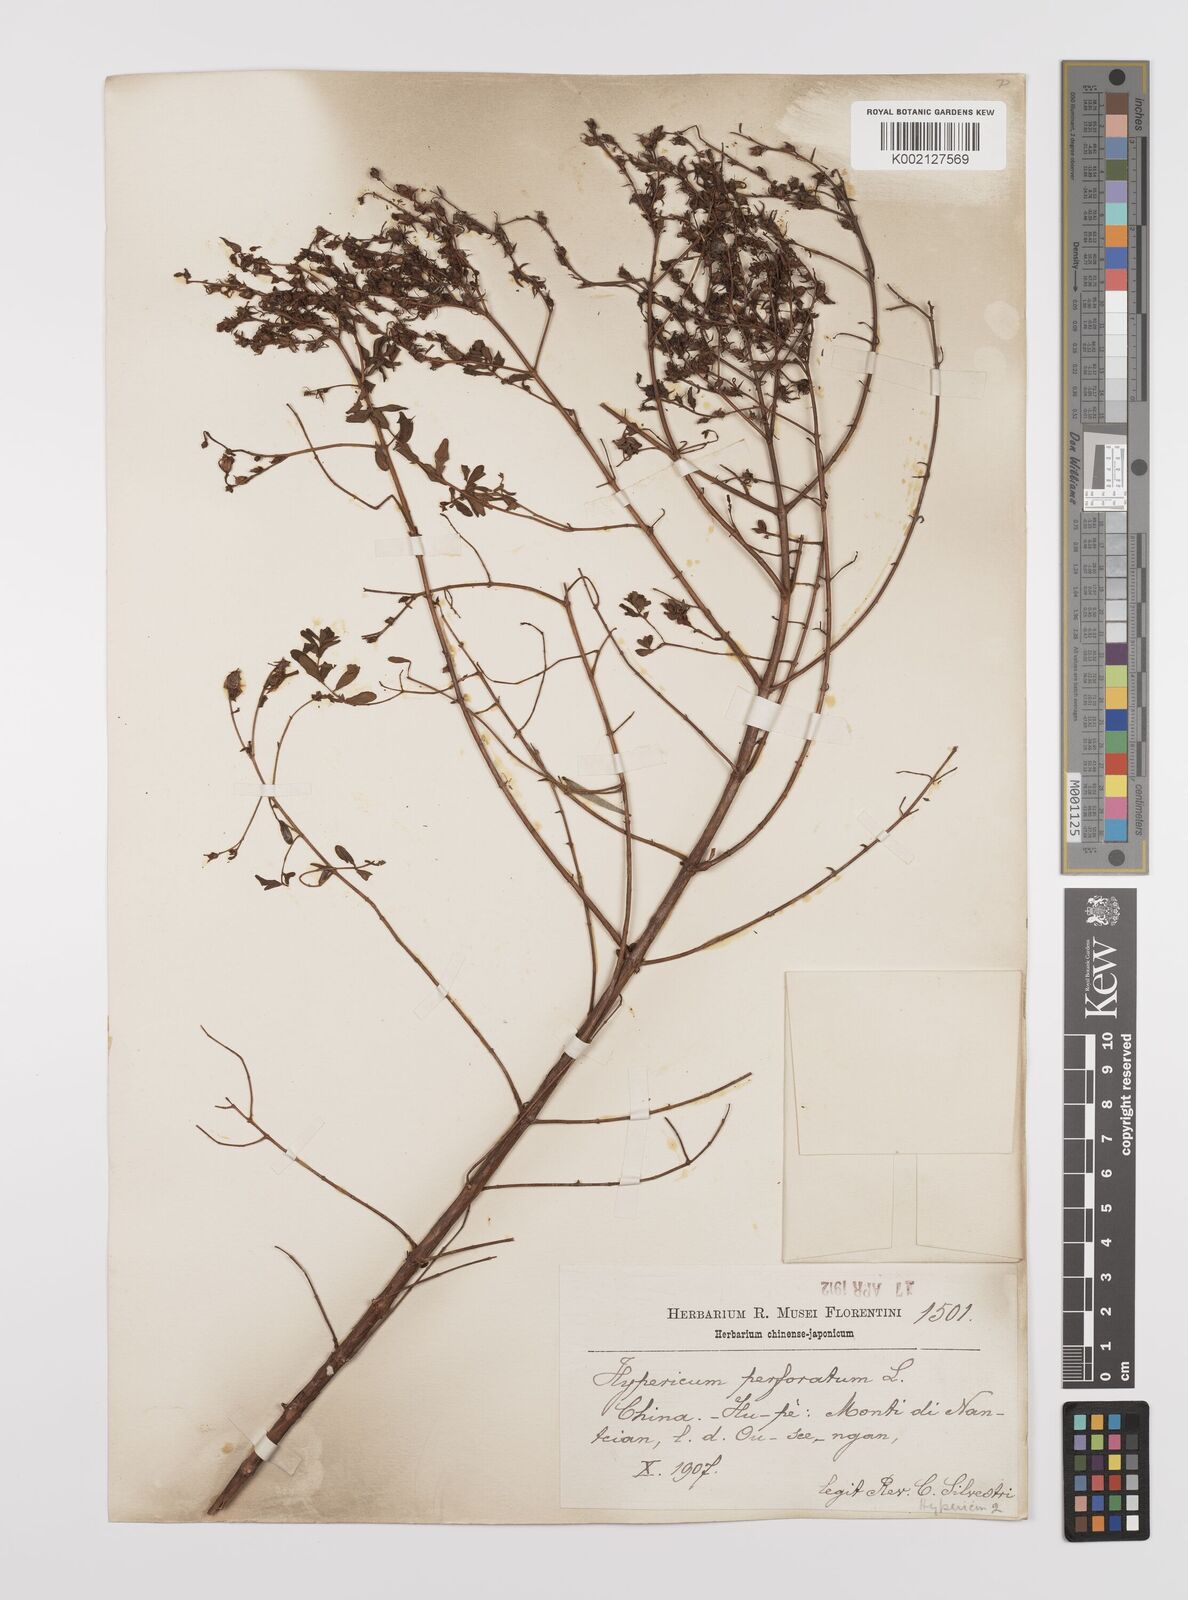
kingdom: Plantae
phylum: Tracheophyta
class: Magnoliopsida
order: Malpighiales
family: Hypericaceae
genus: Hypericum
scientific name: Hypericum perforatum
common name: Common st. johnswort
